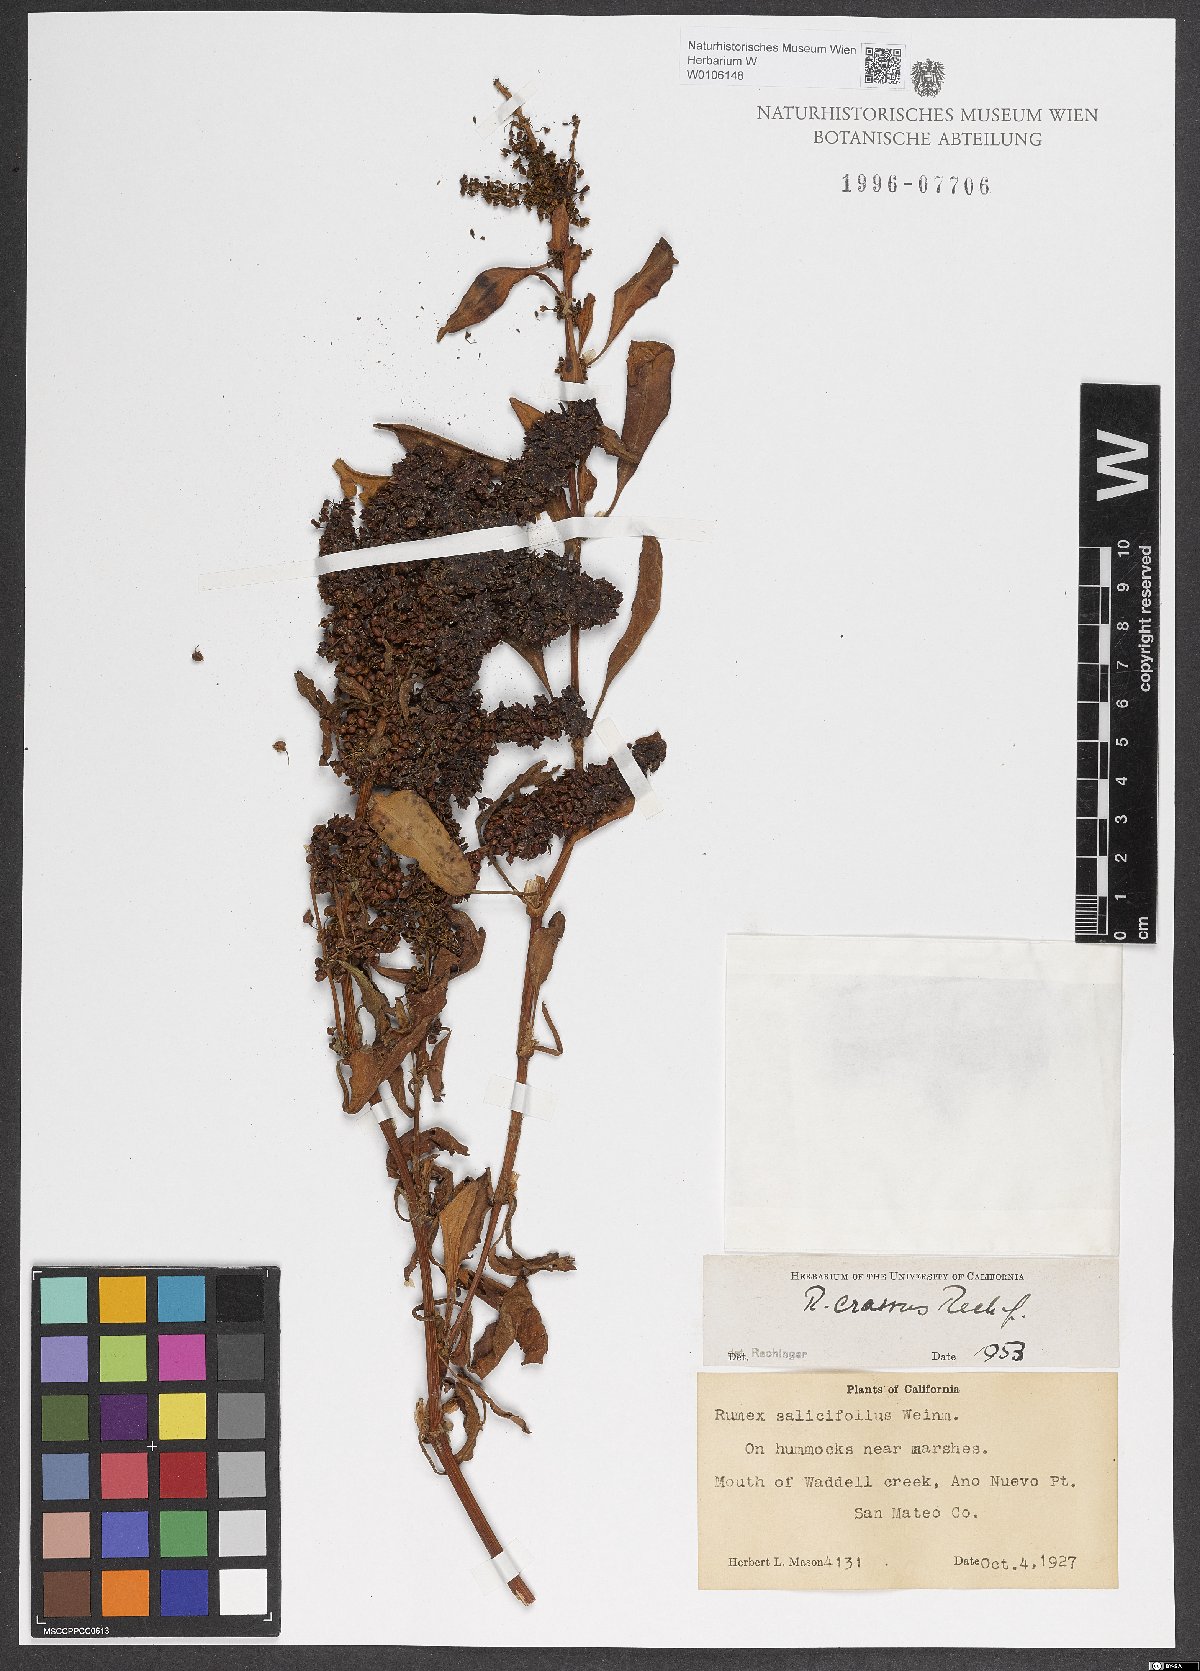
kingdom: Plantae
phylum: Tracheophyta
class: Magnoliopsida
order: Caryophyllales
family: Polygonaceae
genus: Rumex
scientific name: Rumex crassus
